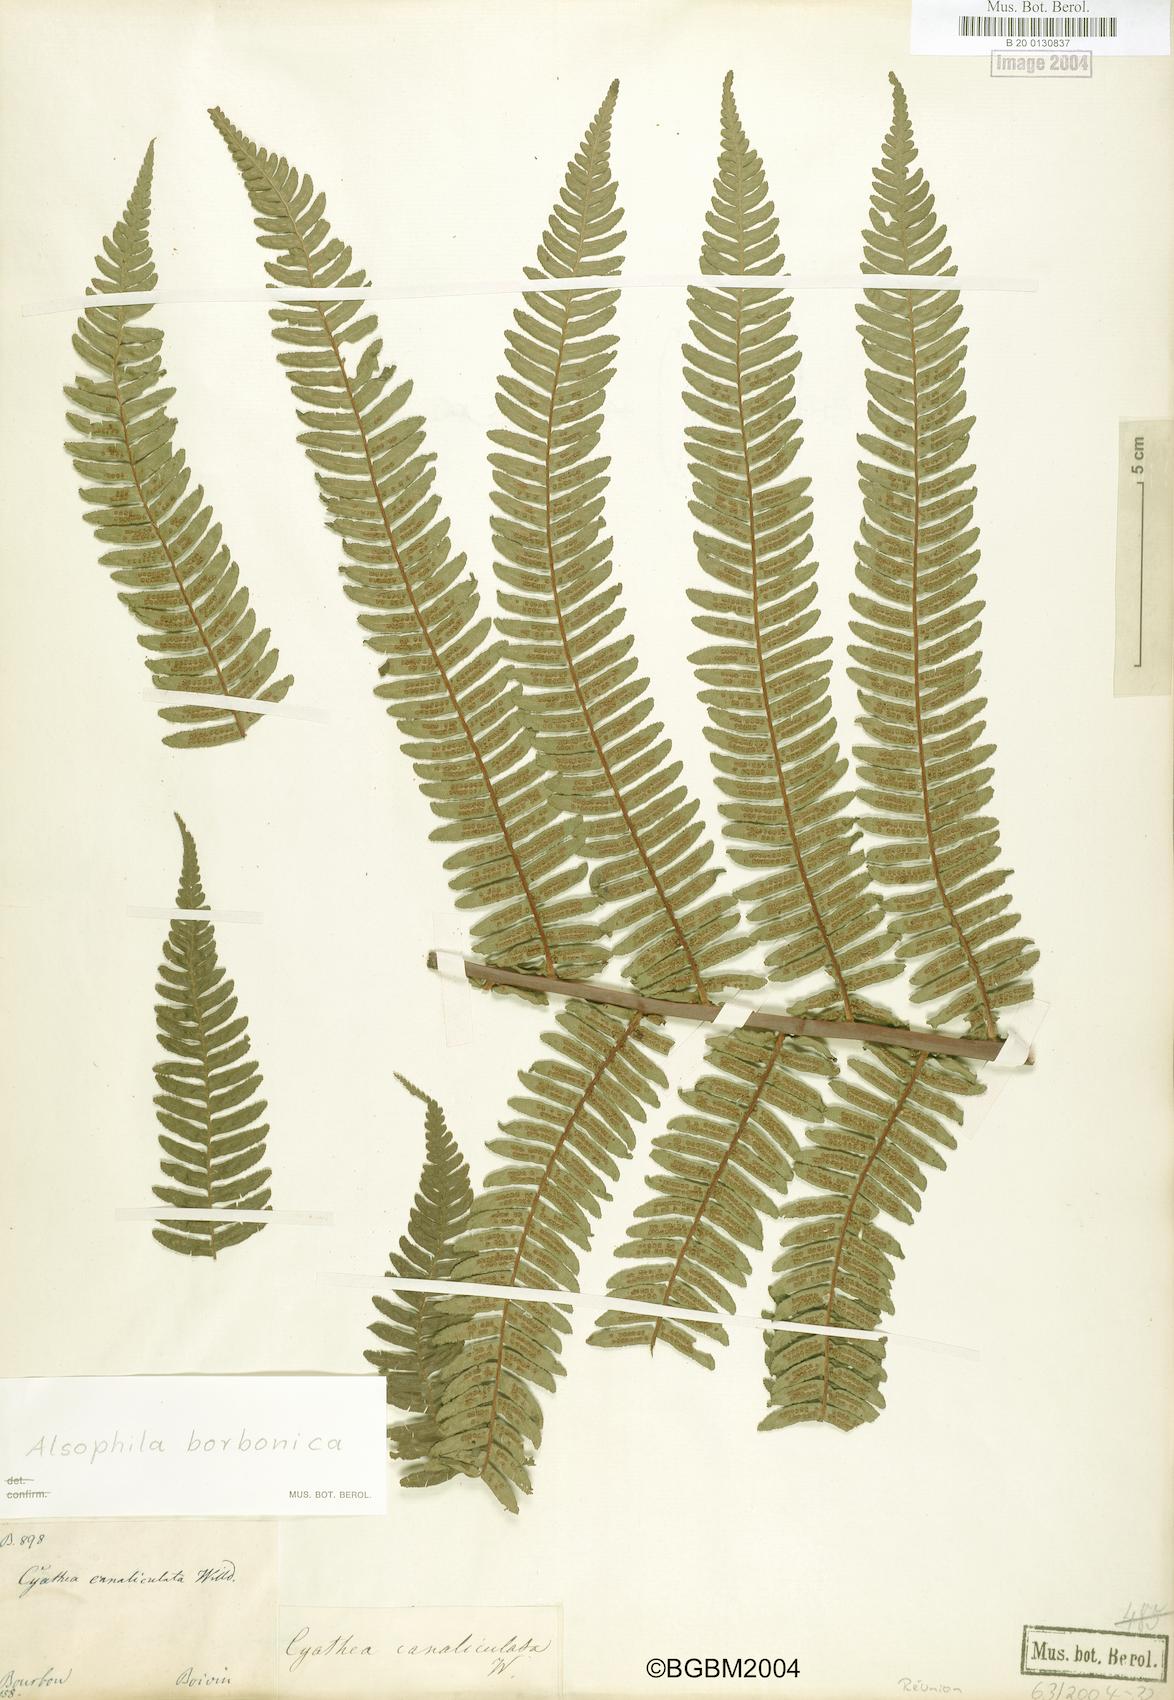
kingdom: Plantae
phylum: Tracheophyta
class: Polypodiopsida
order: Cyatheales
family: Cyatheaceae
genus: Alsophila
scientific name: Alsophila borbonica
